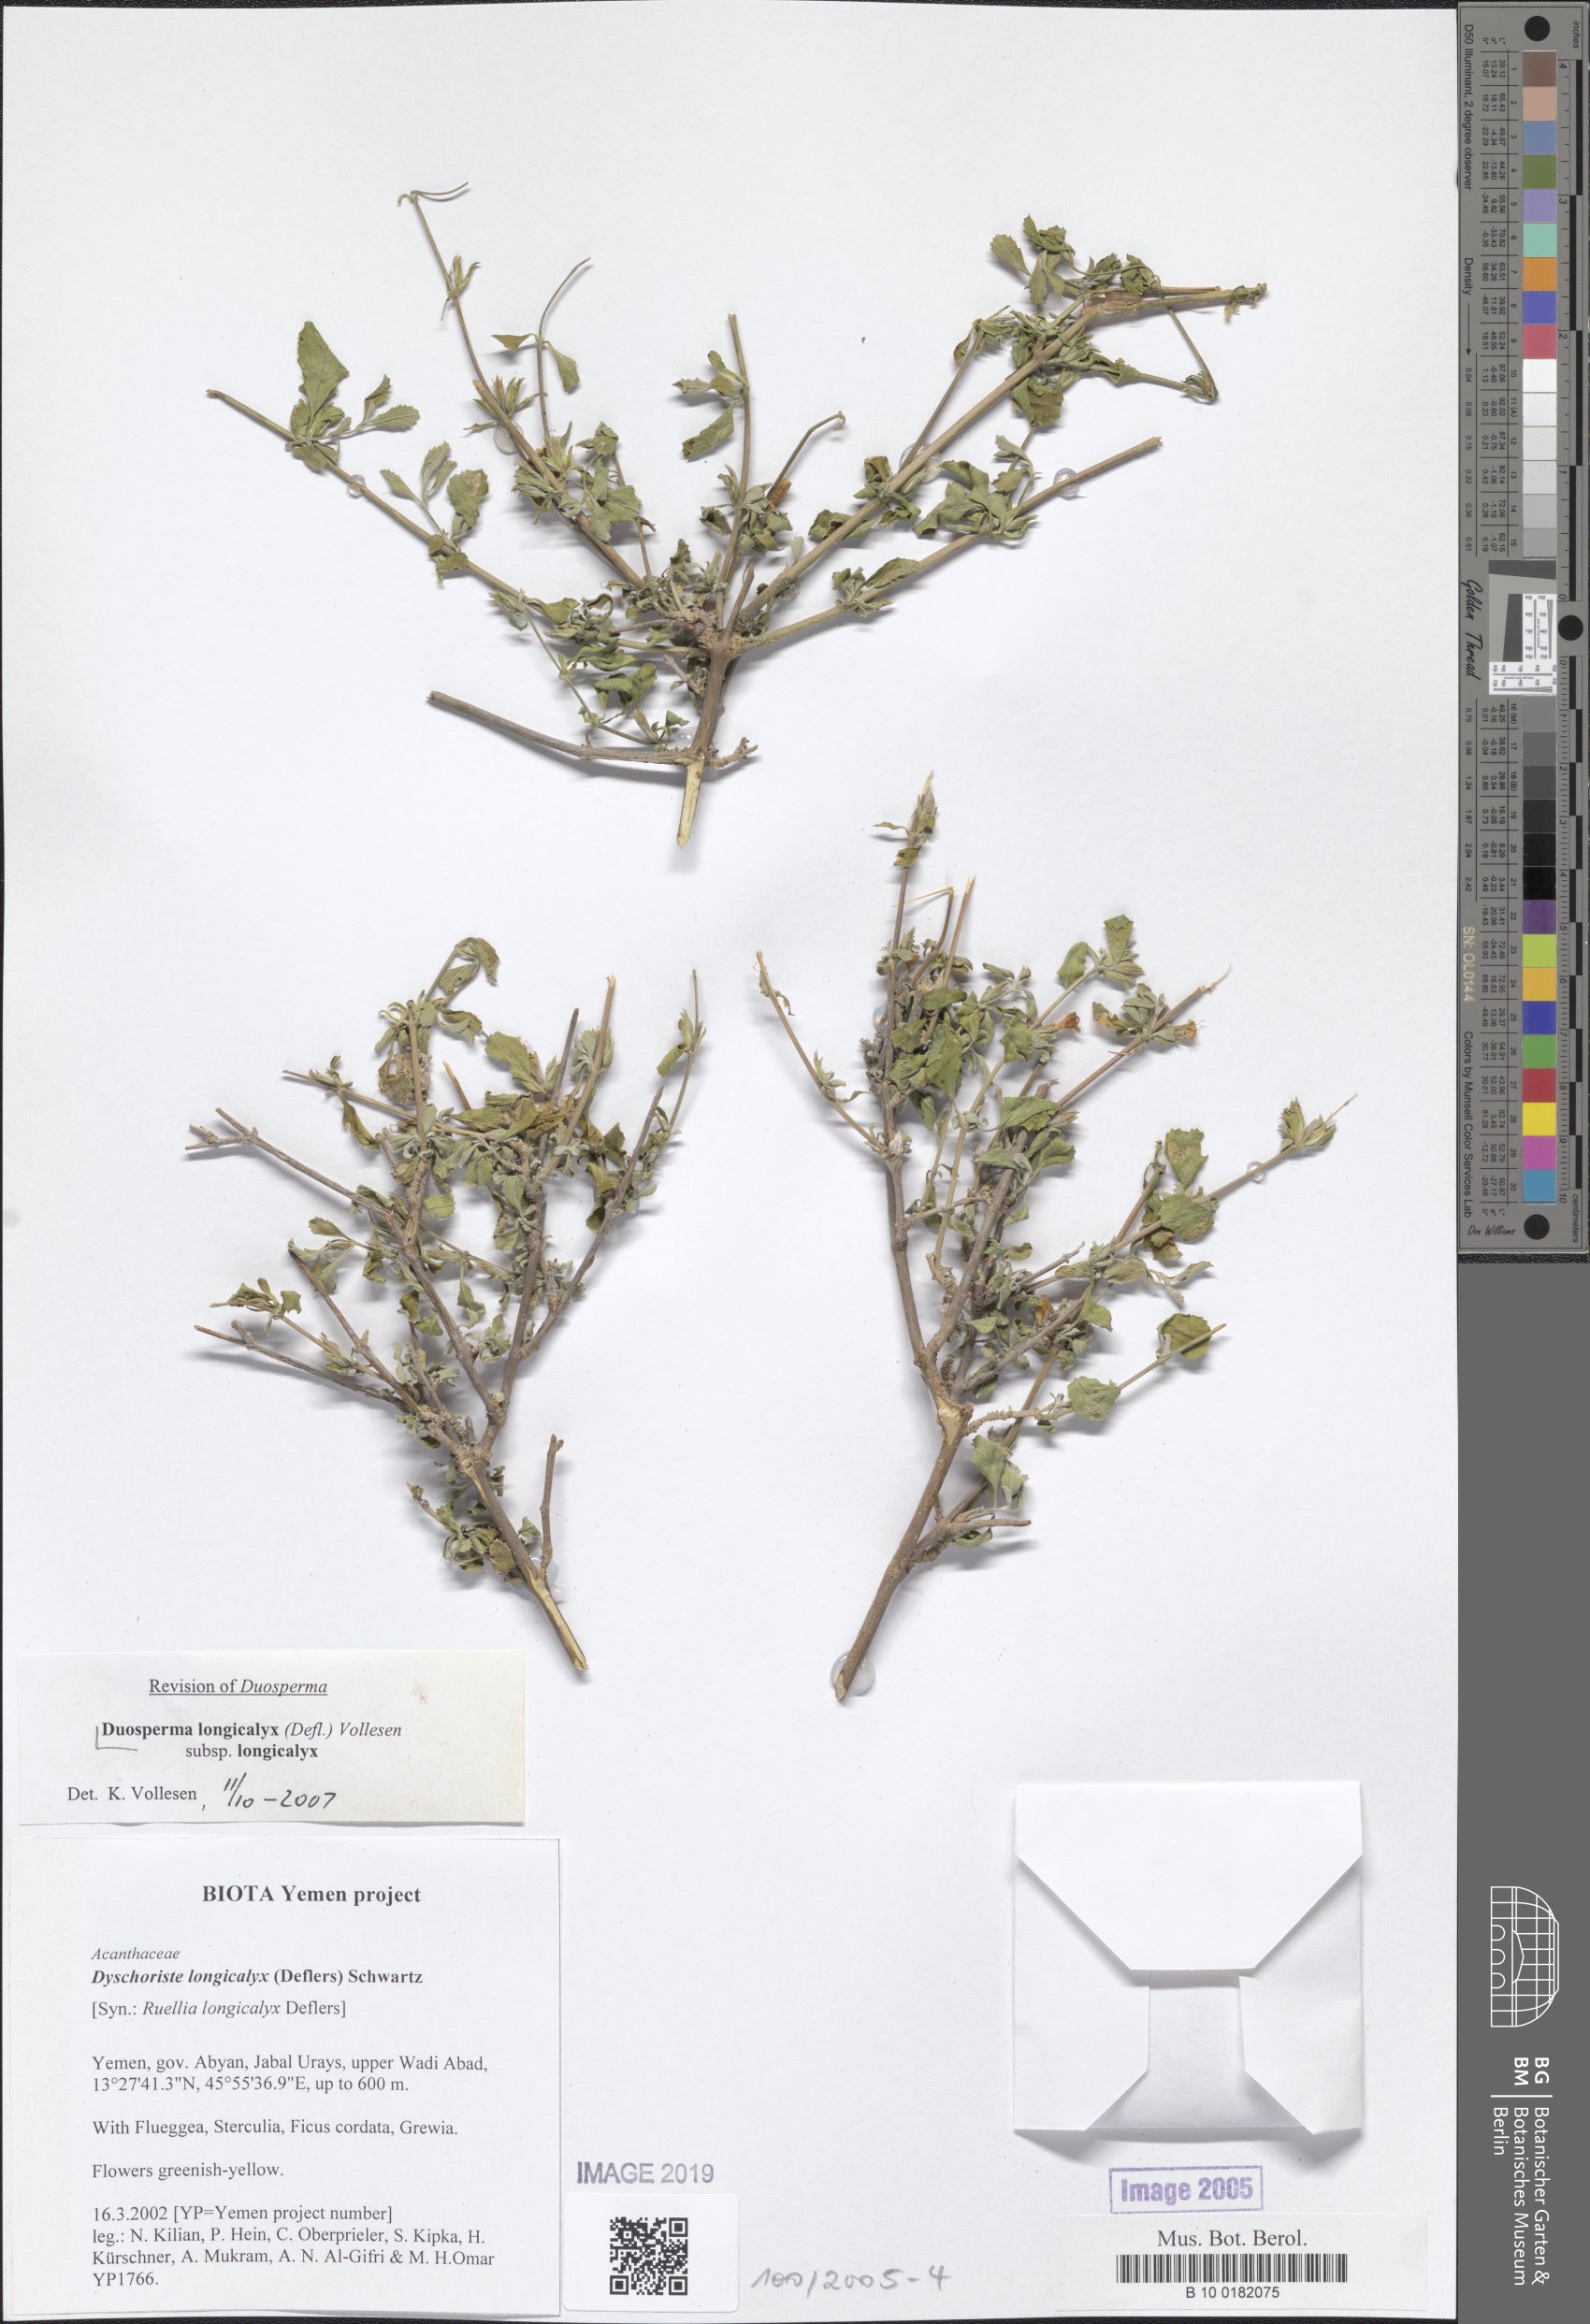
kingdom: Plantae
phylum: Tracheophyta
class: Magnoliopsida
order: Lamiales
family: Acanthaceae
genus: Duosperma
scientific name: Duosperma longicalyx
